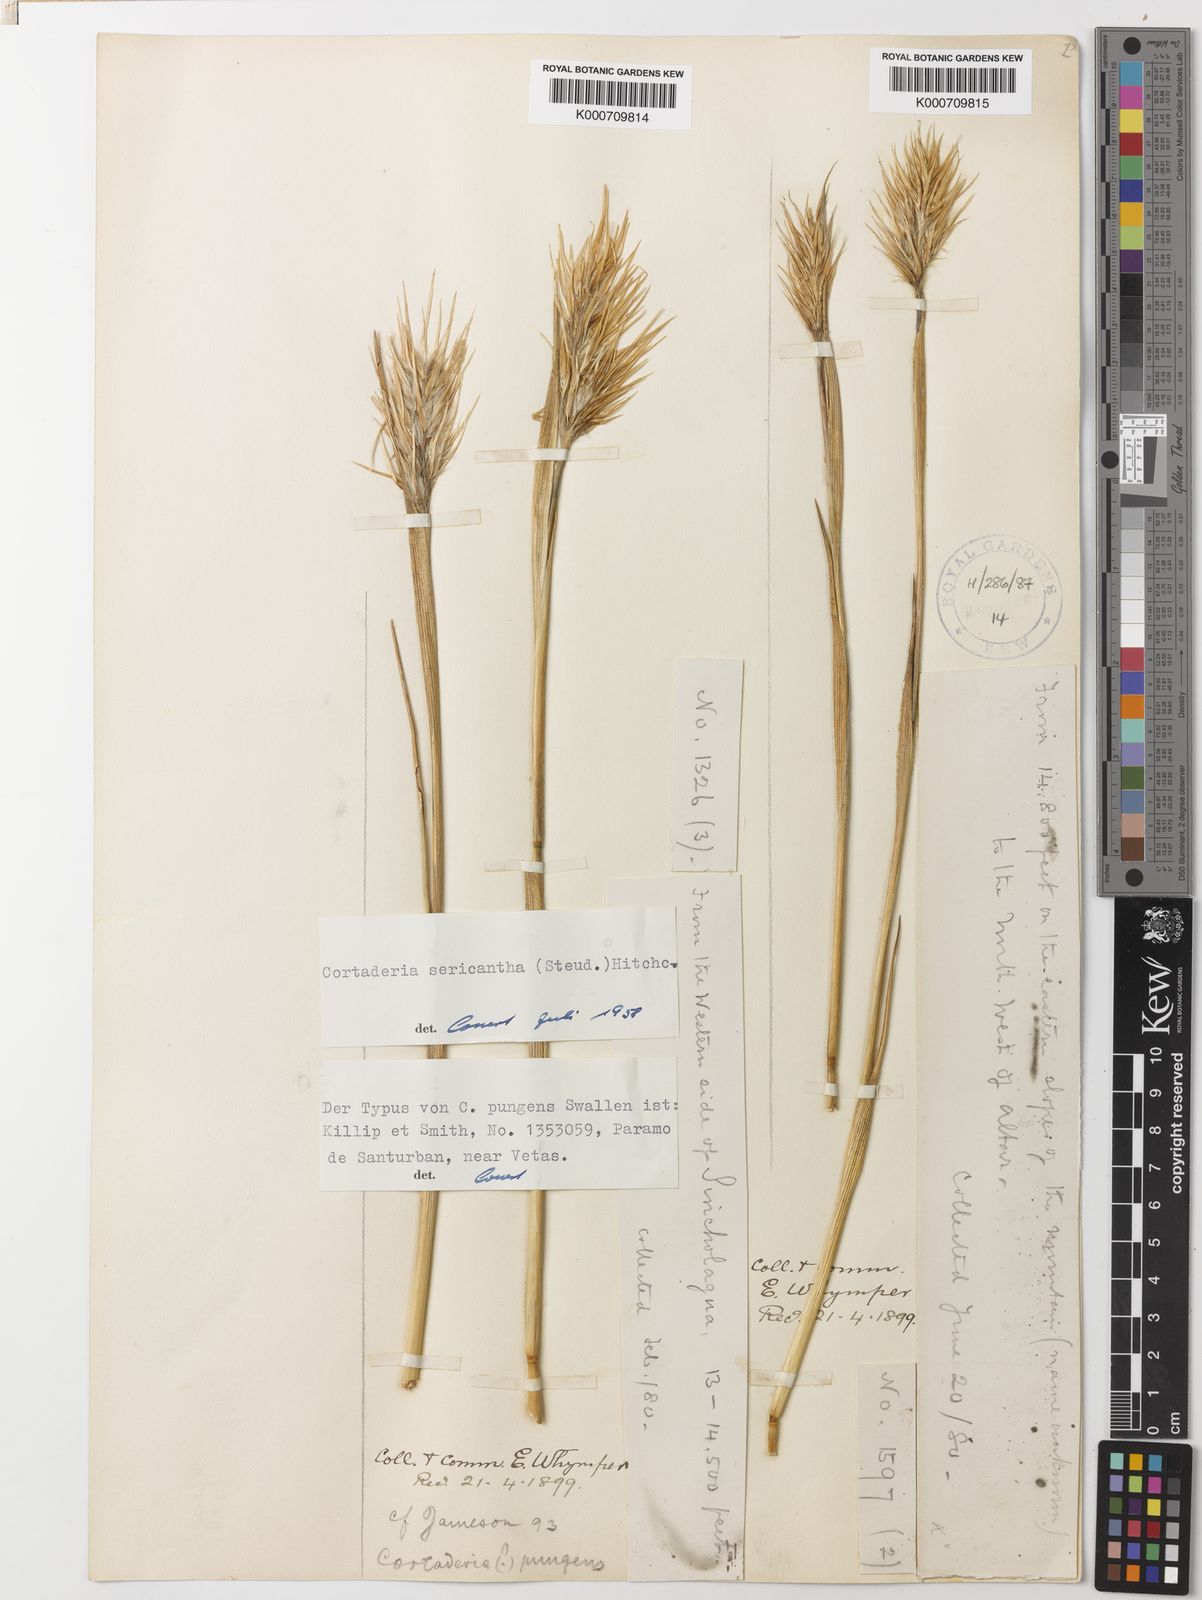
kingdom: Plantae
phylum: Tracheophyta
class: Liliopsida
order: Poales
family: Poaceae
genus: Cortaderia
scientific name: Cortaderia sericantha
